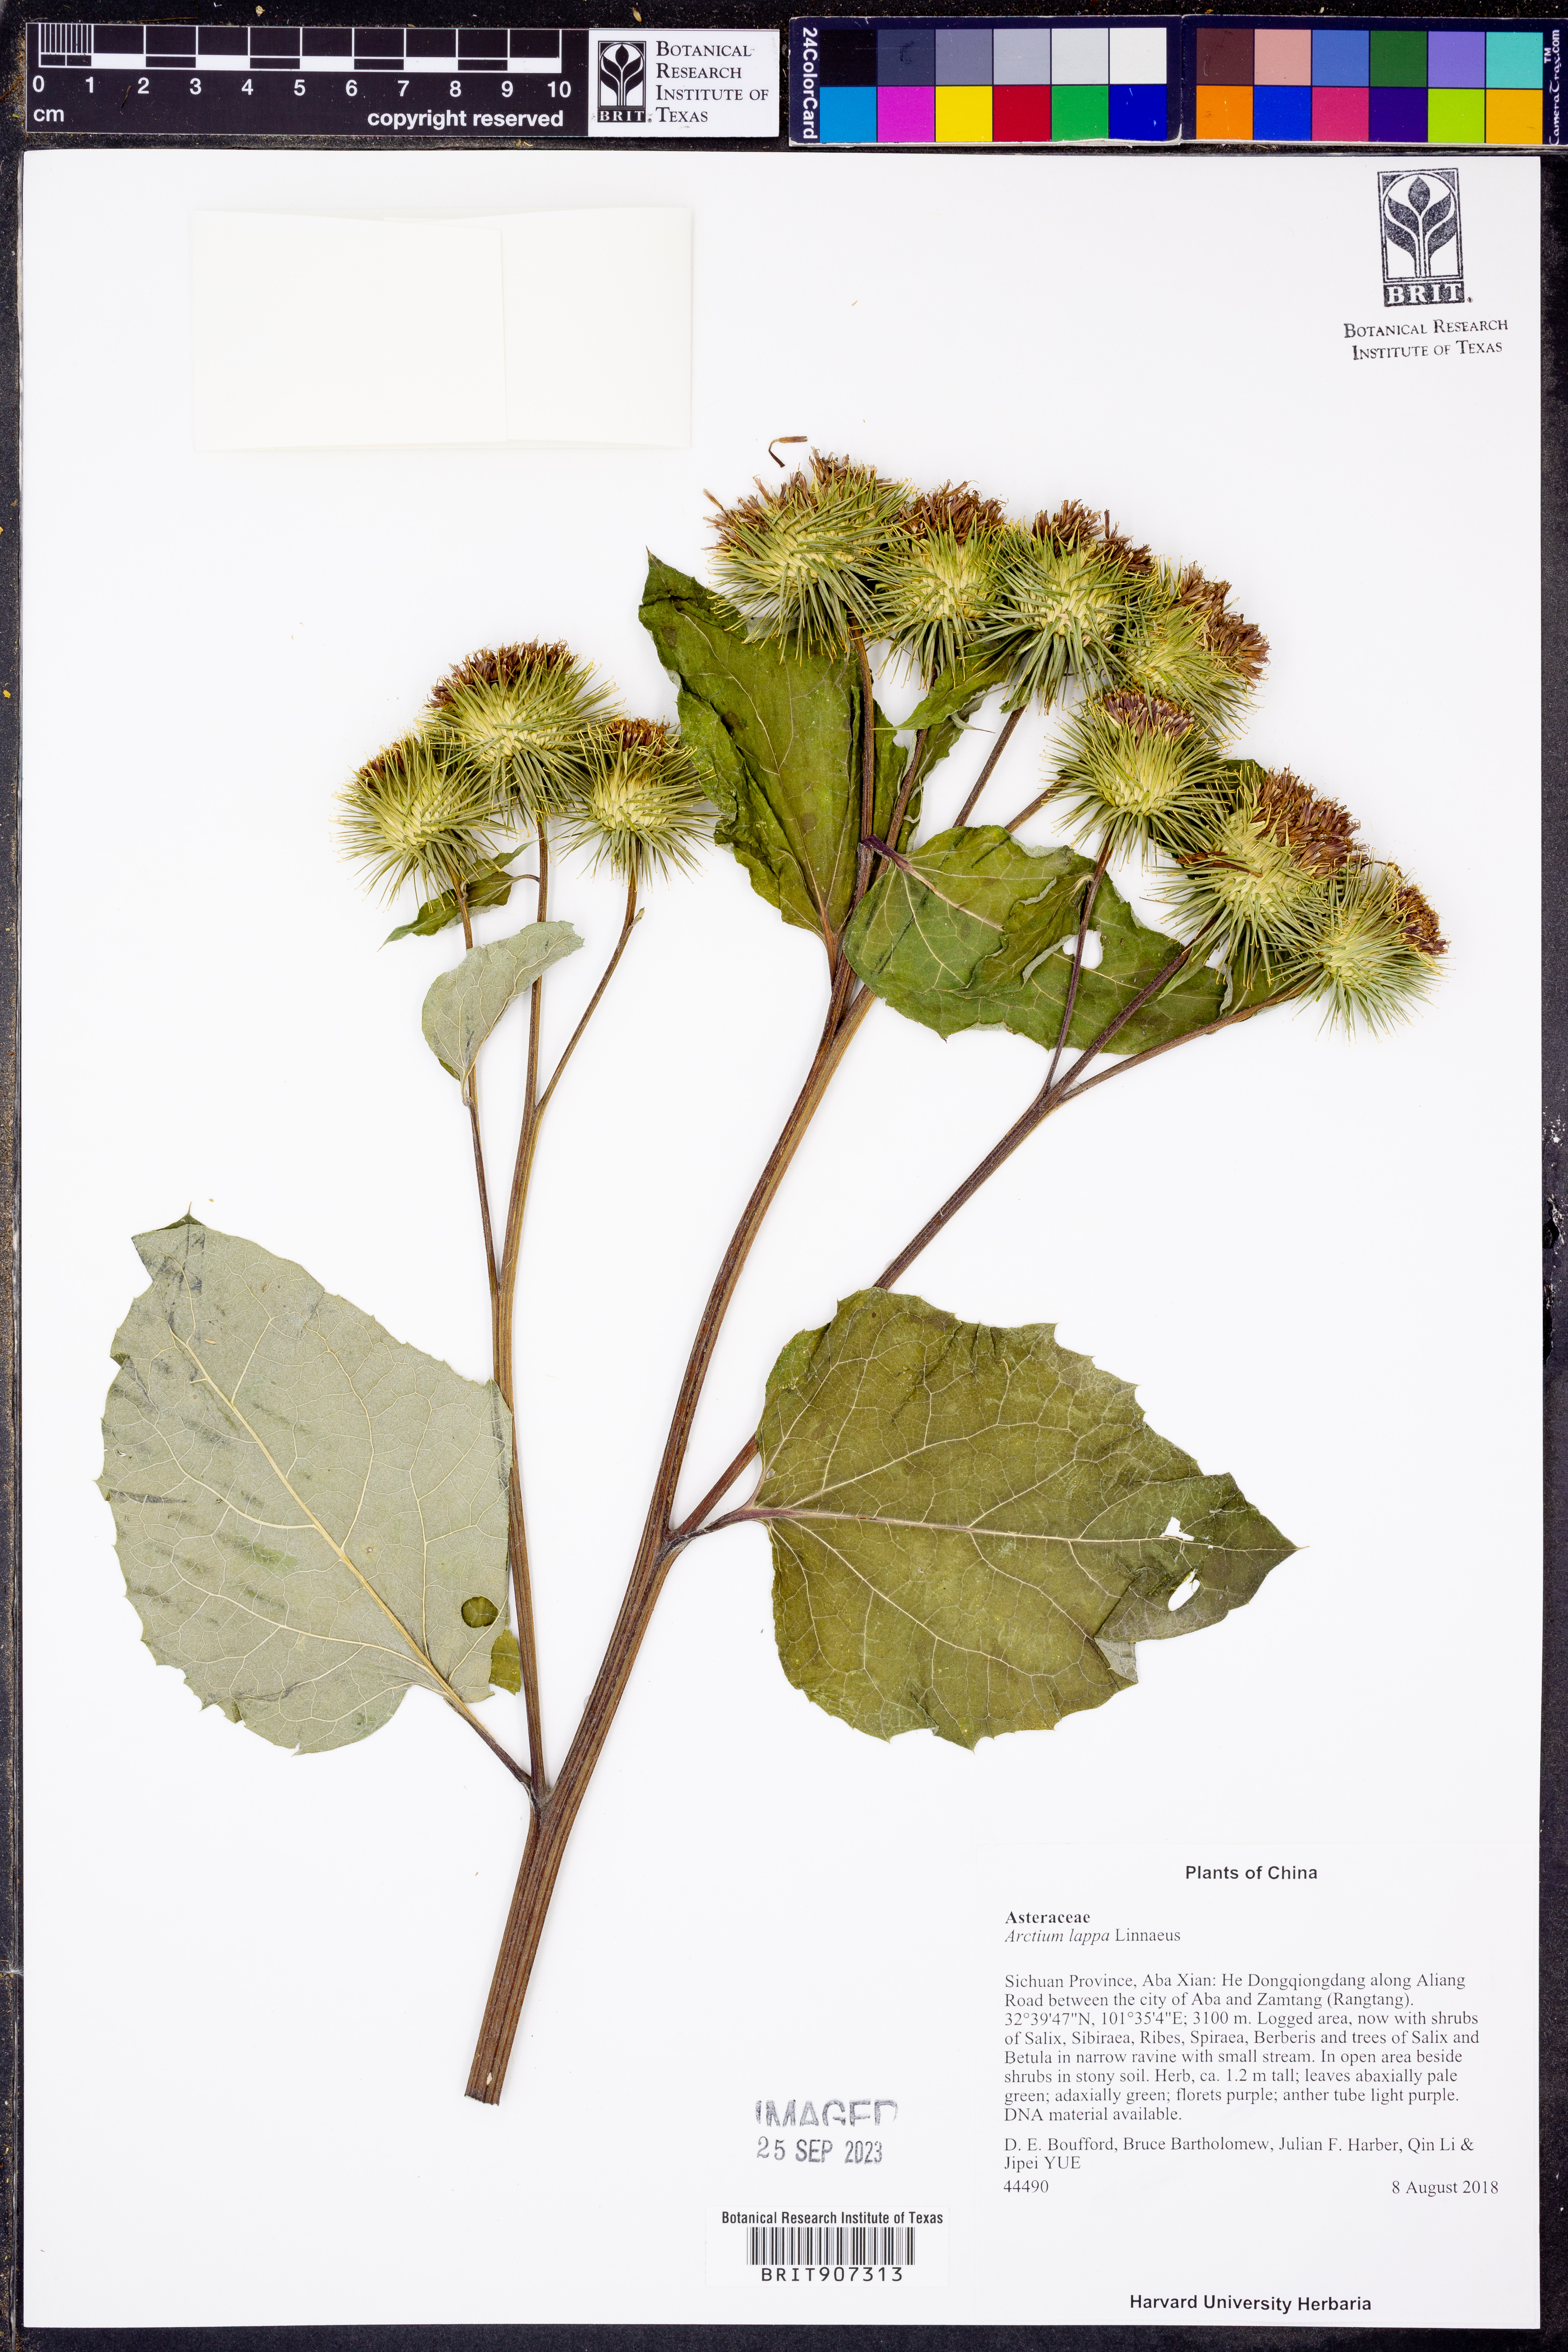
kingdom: Plantae
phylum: Tracheophyta
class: Magnoliopsida
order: Asterales
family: Asteraceae
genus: Arctium
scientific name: Arctium lappa
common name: Greater burdock
